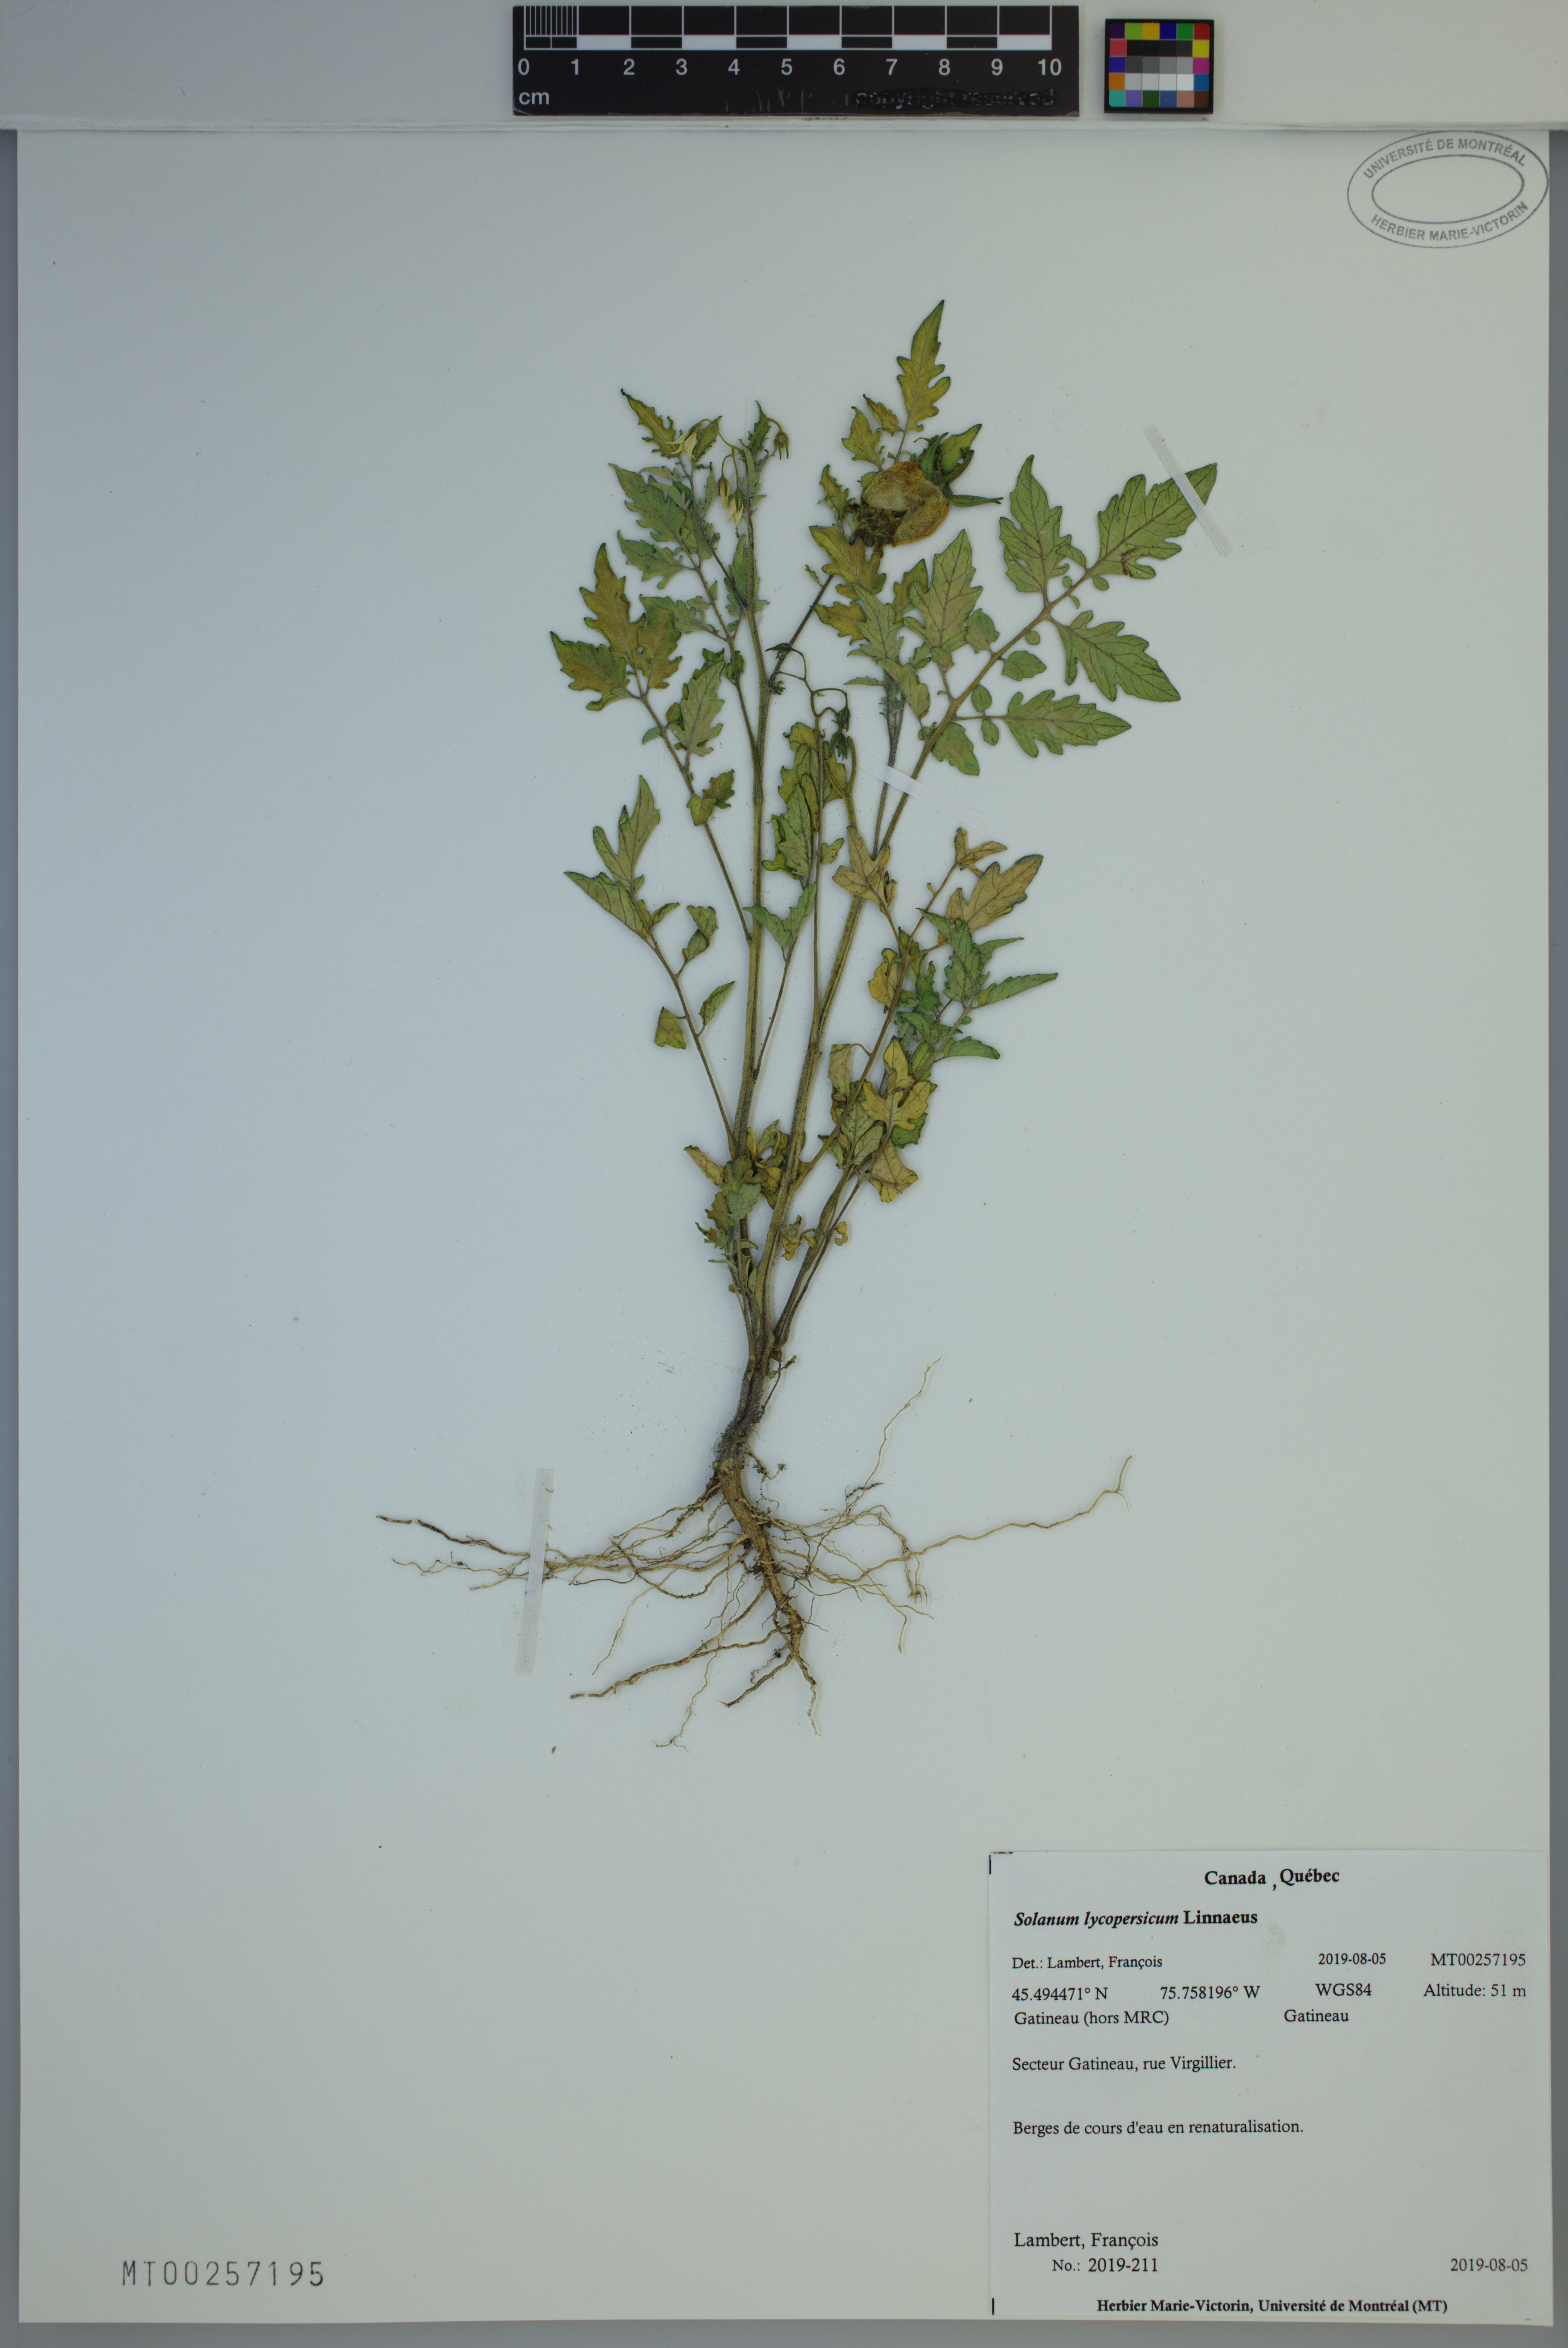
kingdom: Plantae
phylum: Tracheophyta
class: Magnoliopsida
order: Solanales
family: Solanaceae
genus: Solanum
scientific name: Solanum lycopersicum
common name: Garden tomato
